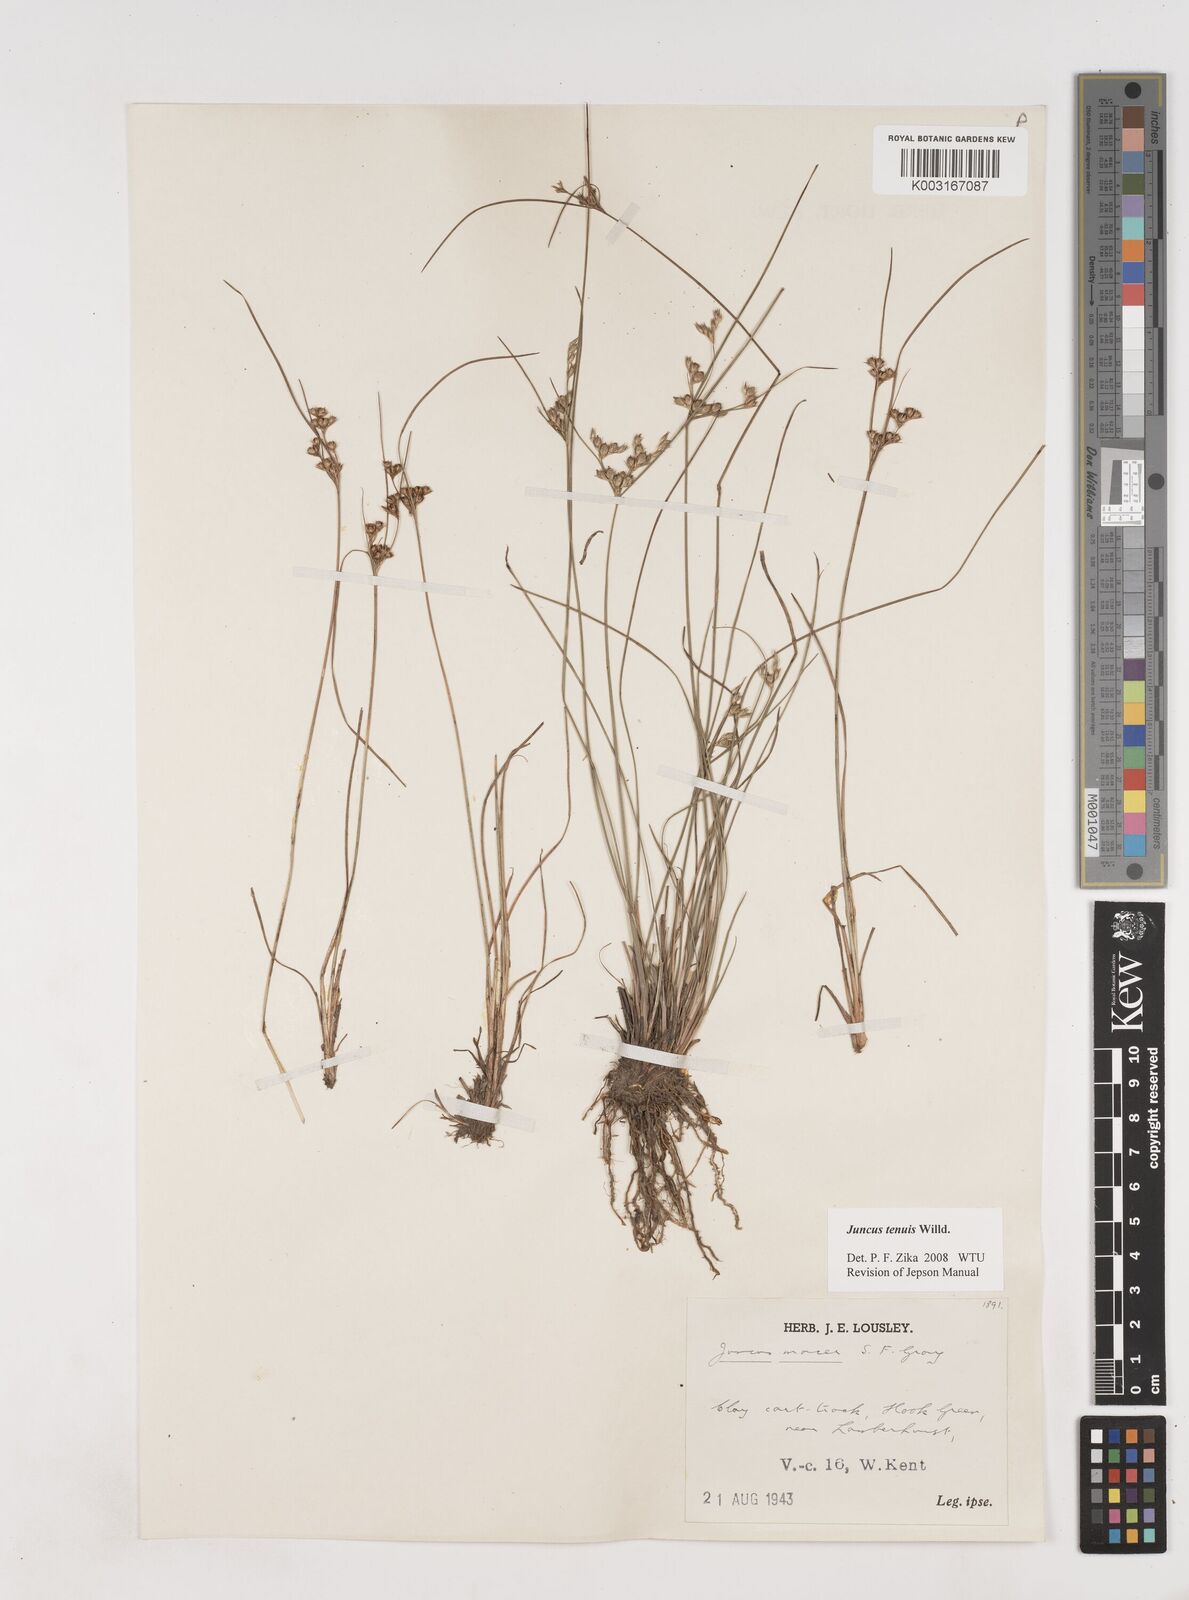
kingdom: Plantae
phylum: Tracheophyta
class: Liliopsida
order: Poales
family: Juncaceae
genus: Juncus
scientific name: Juncus tenuis
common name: Slender rush
